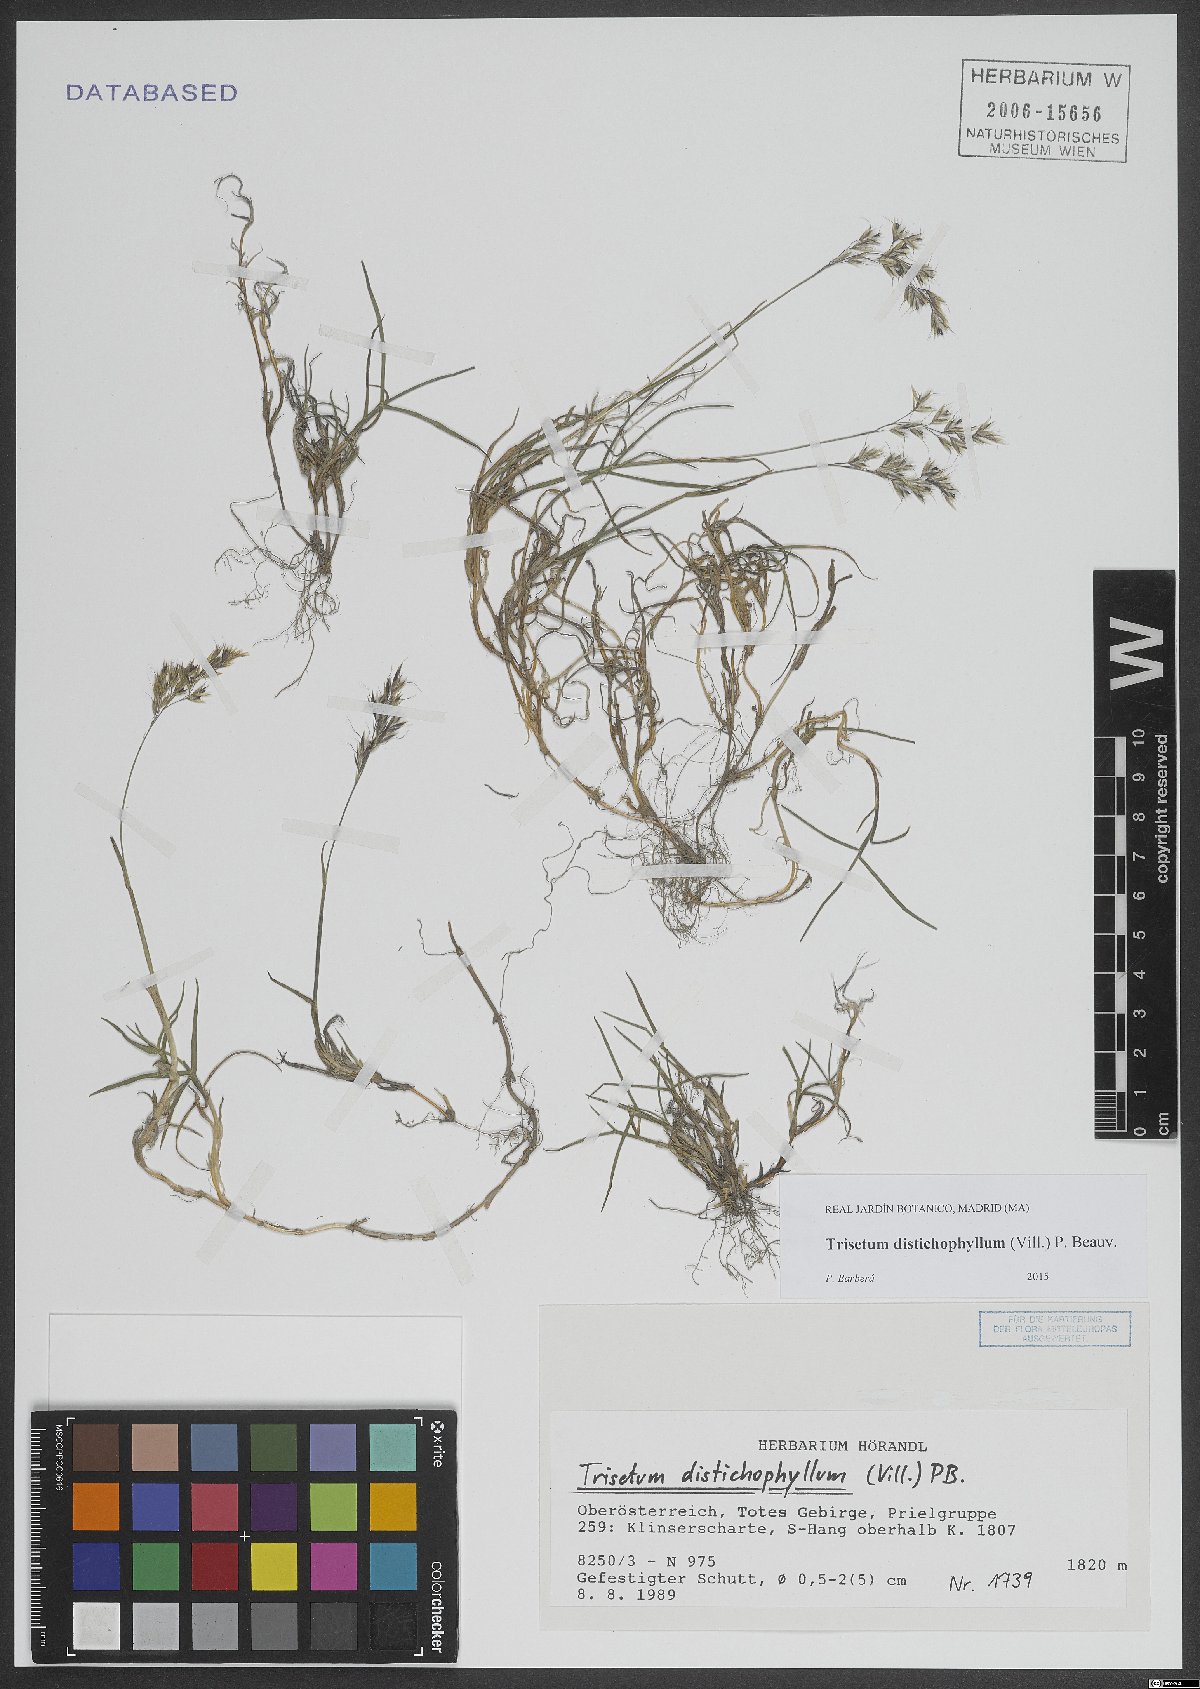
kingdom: Plantae
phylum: Tracheophyta
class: Liliopsida
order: Poales
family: Poaceae
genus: Acrospelion
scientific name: Acrospelion distichophyllum
